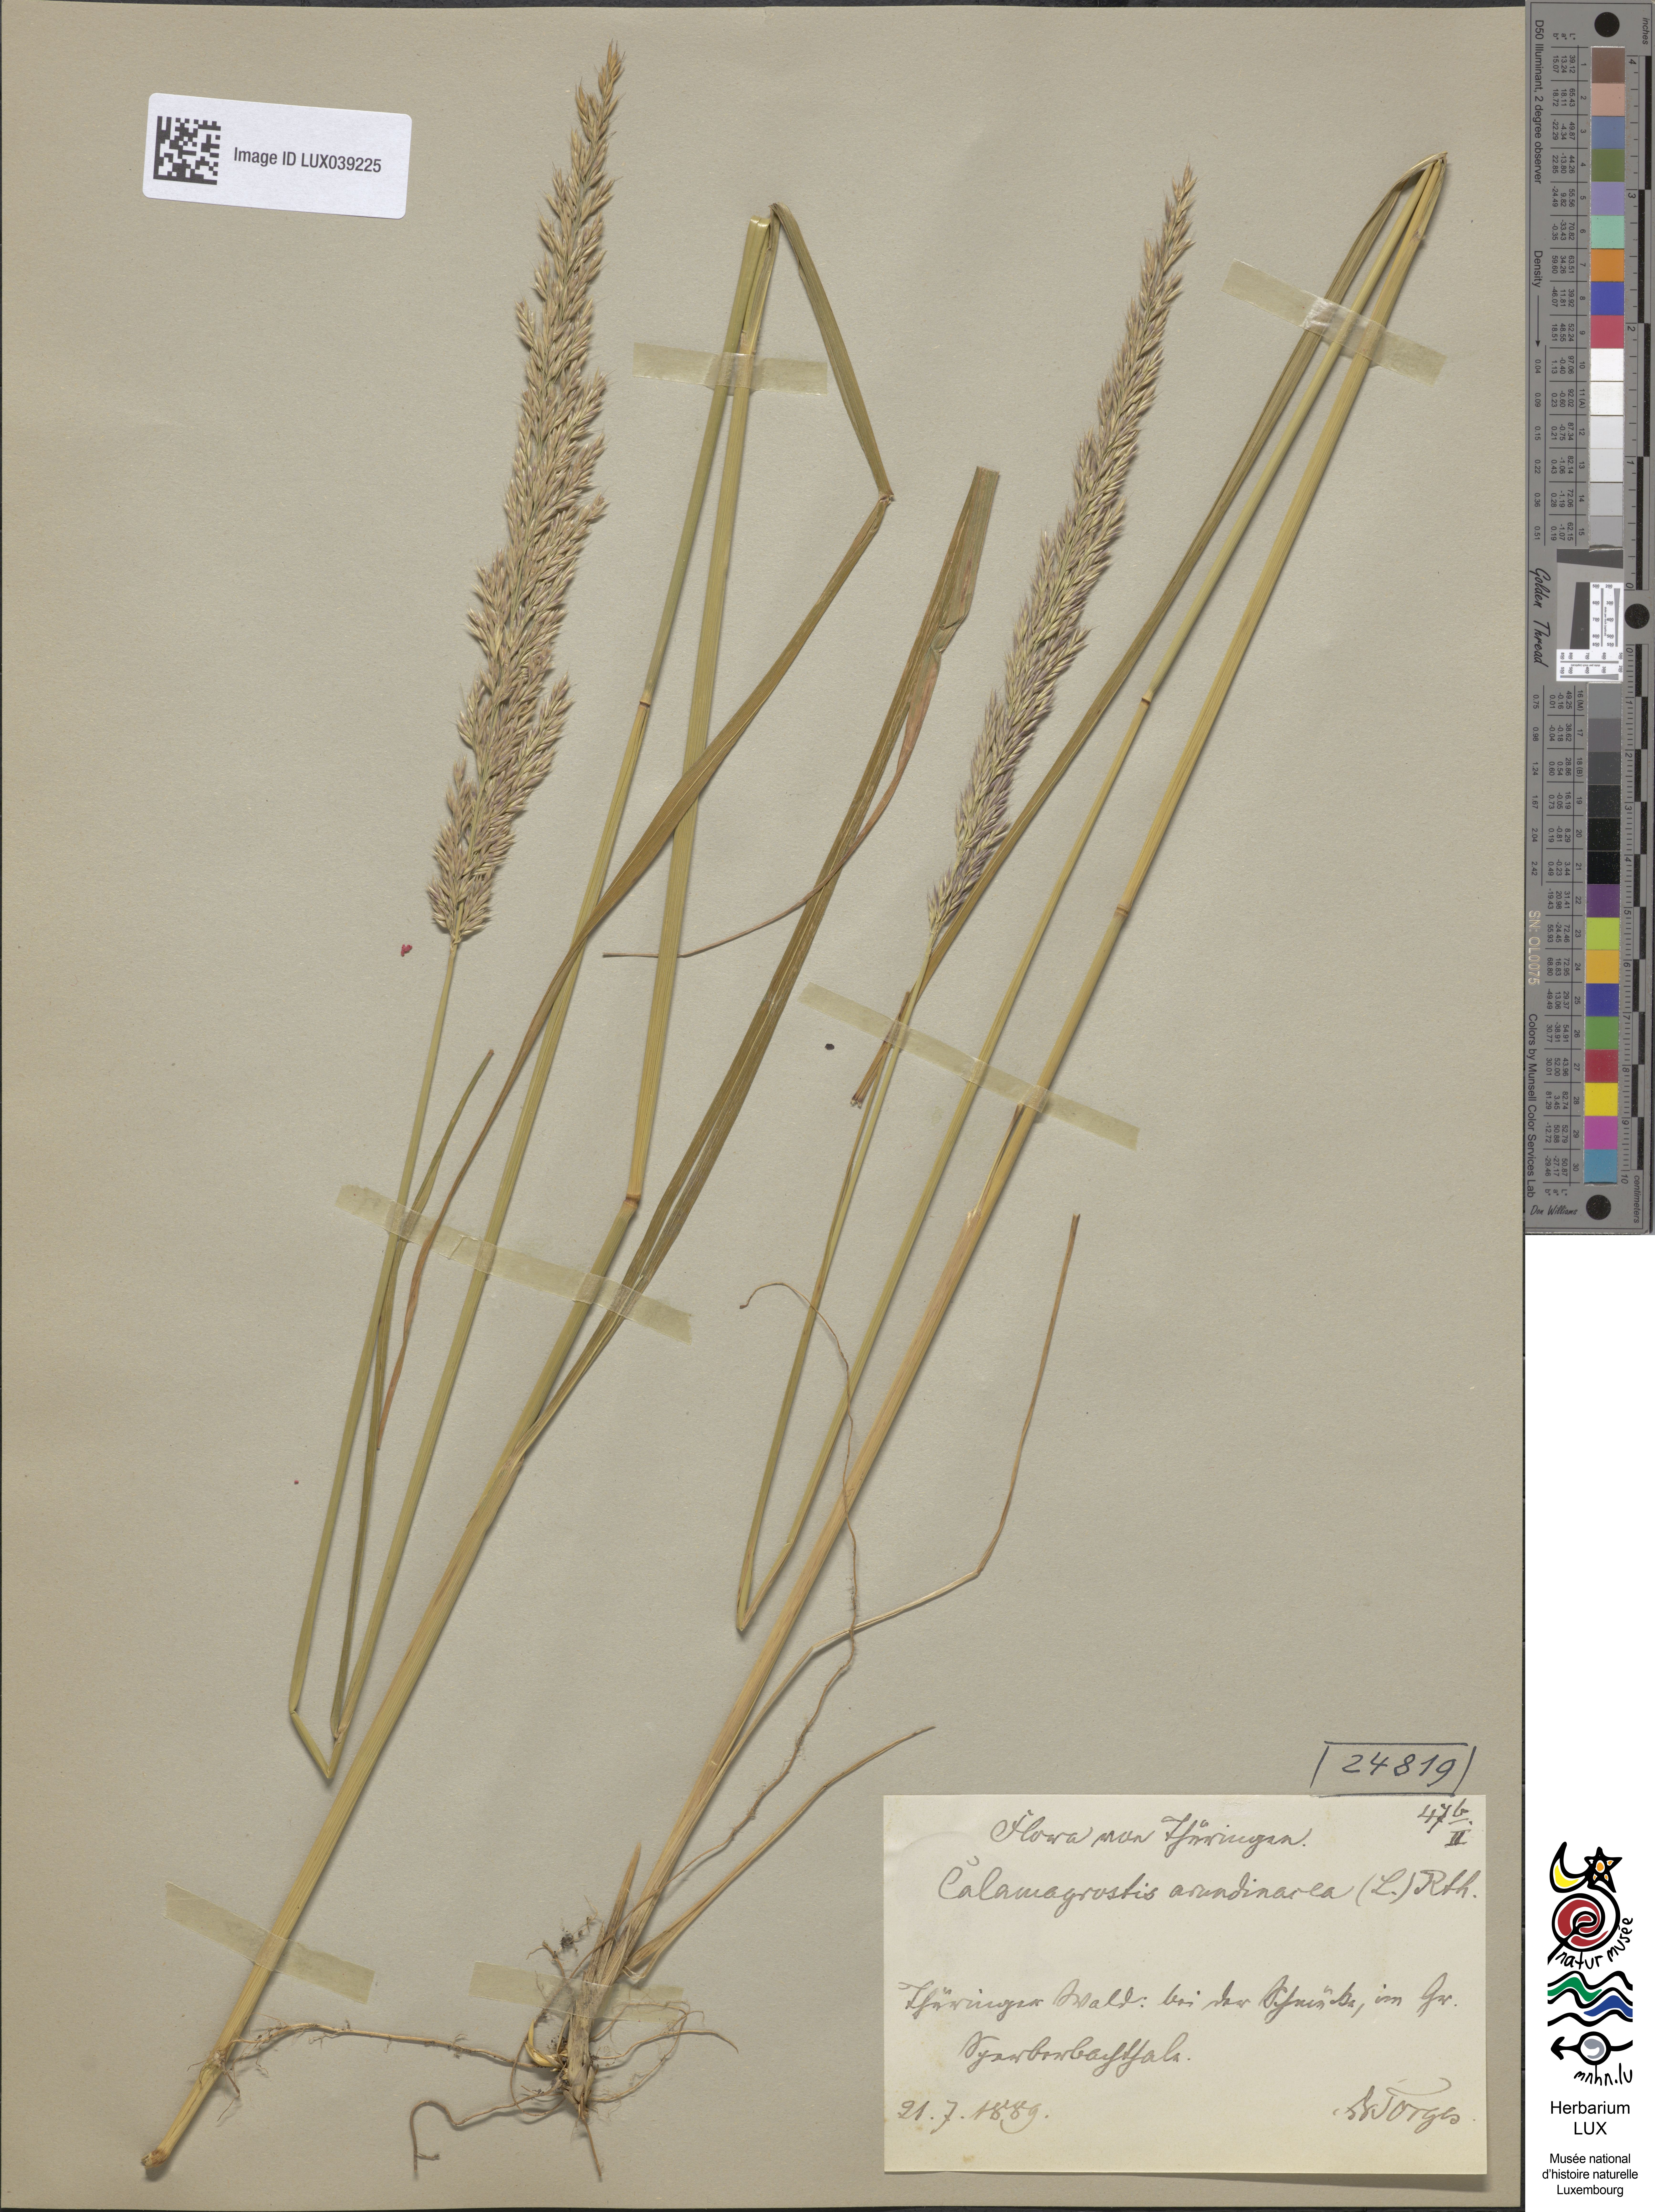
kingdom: Plantae
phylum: Tracheophyta
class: Liliopsida
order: Poales
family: Poaceae
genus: Calamagrostis
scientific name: Calamagrostis arundinacea
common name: Metskastik
